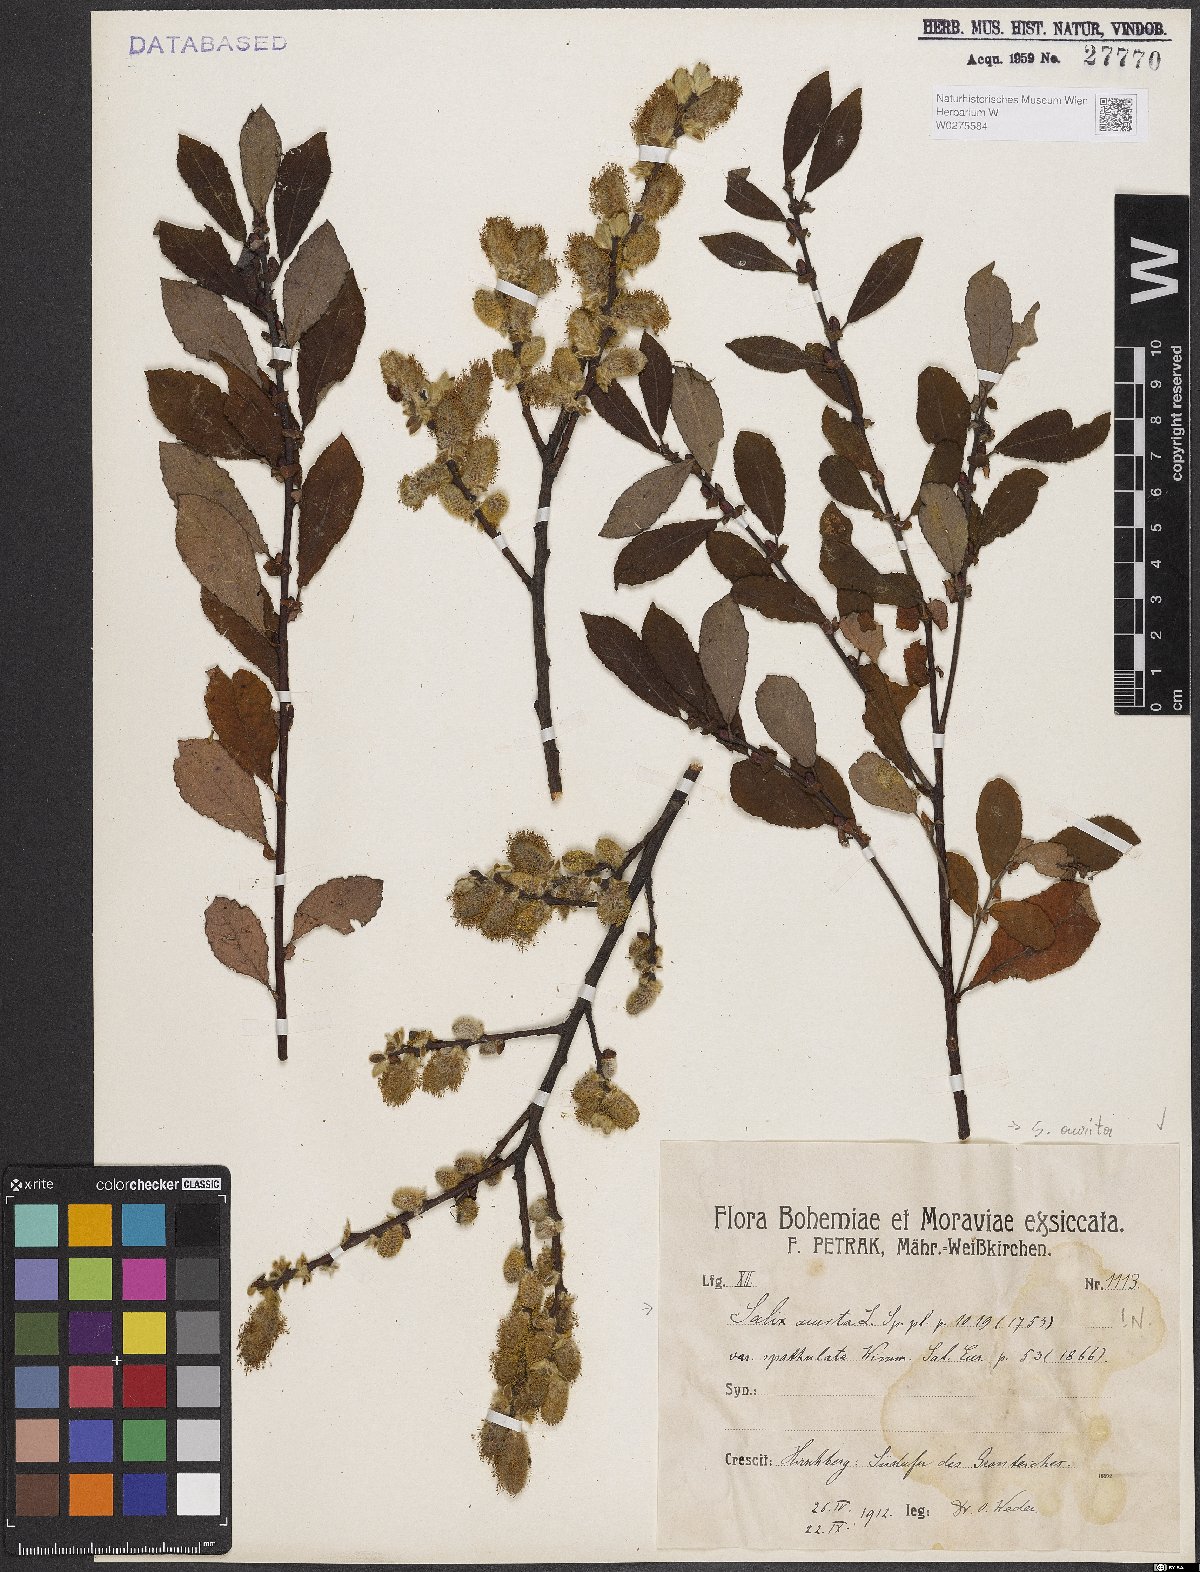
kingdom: Plantae
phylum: Tracheophyta
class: Magnoliopsida
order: Malpighiales
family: Salicaceae
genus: Salix
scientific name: Salix aurita
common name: Eared willow
